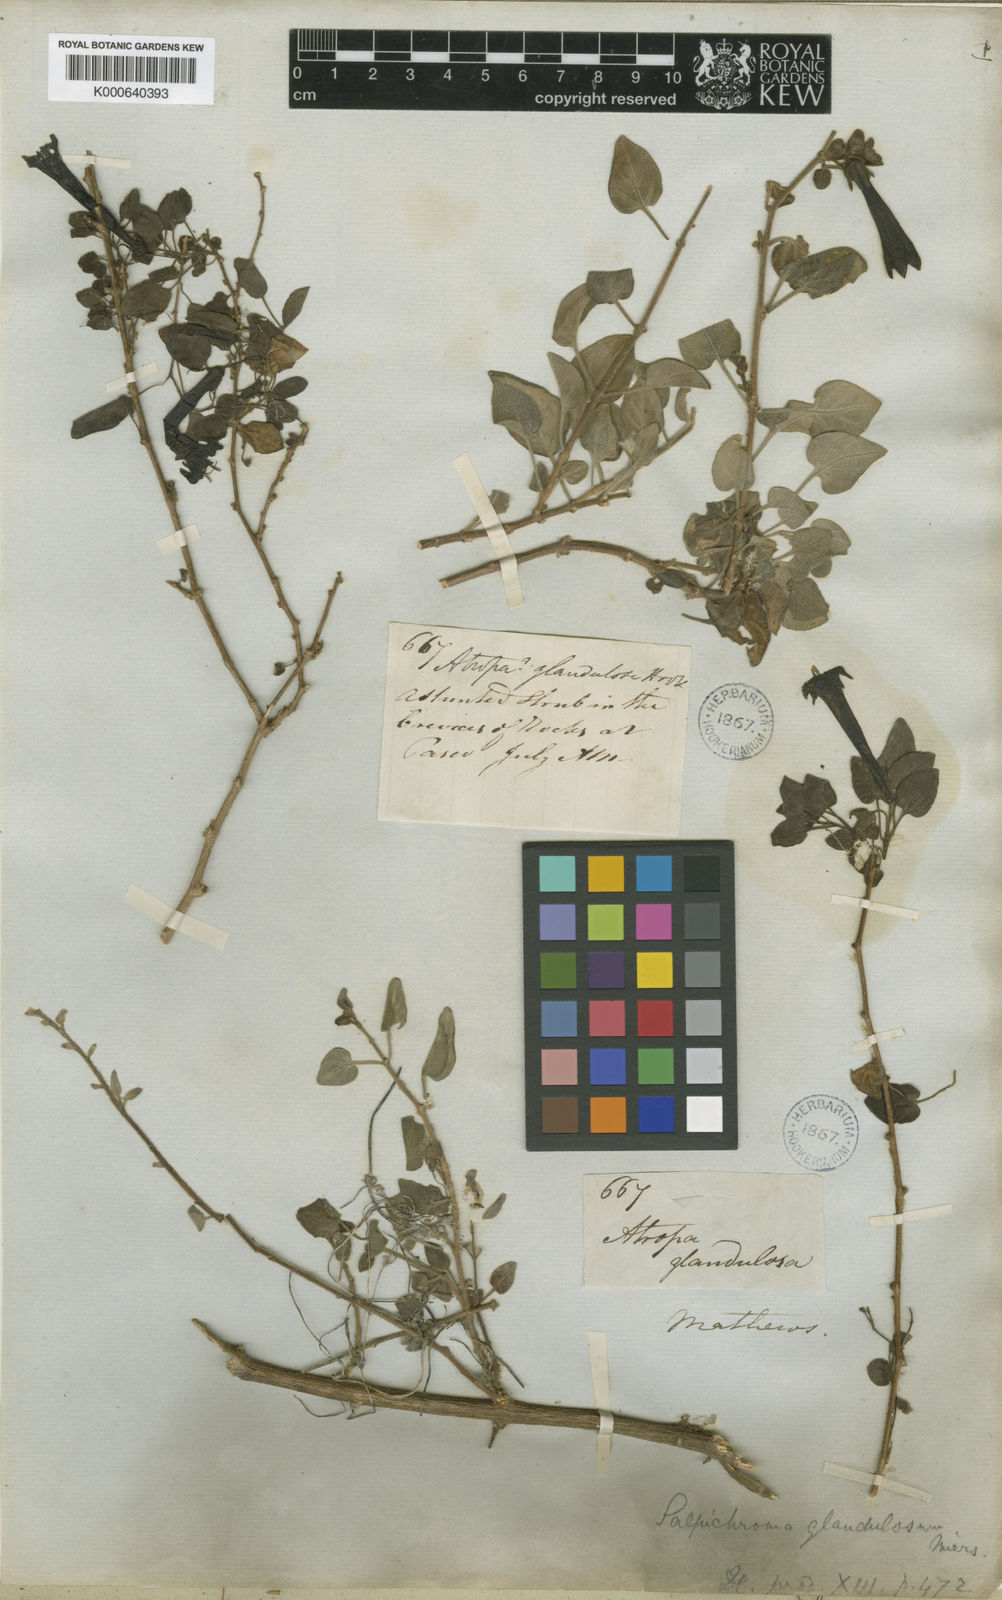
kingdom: Plantae
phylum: Tracheophyta
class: Magnoliopsida
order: Solanales
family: Solanaceae
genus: Salpichroa
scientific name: Salpichroa glandulosa
